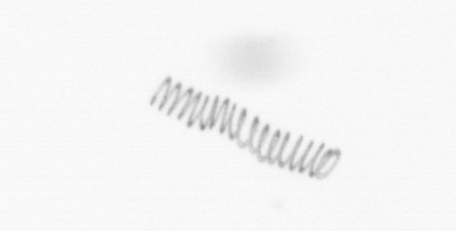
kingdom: Chromista
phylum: Ochrophyta
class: Bacillariophyceae
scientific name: Bacillariophyceae
